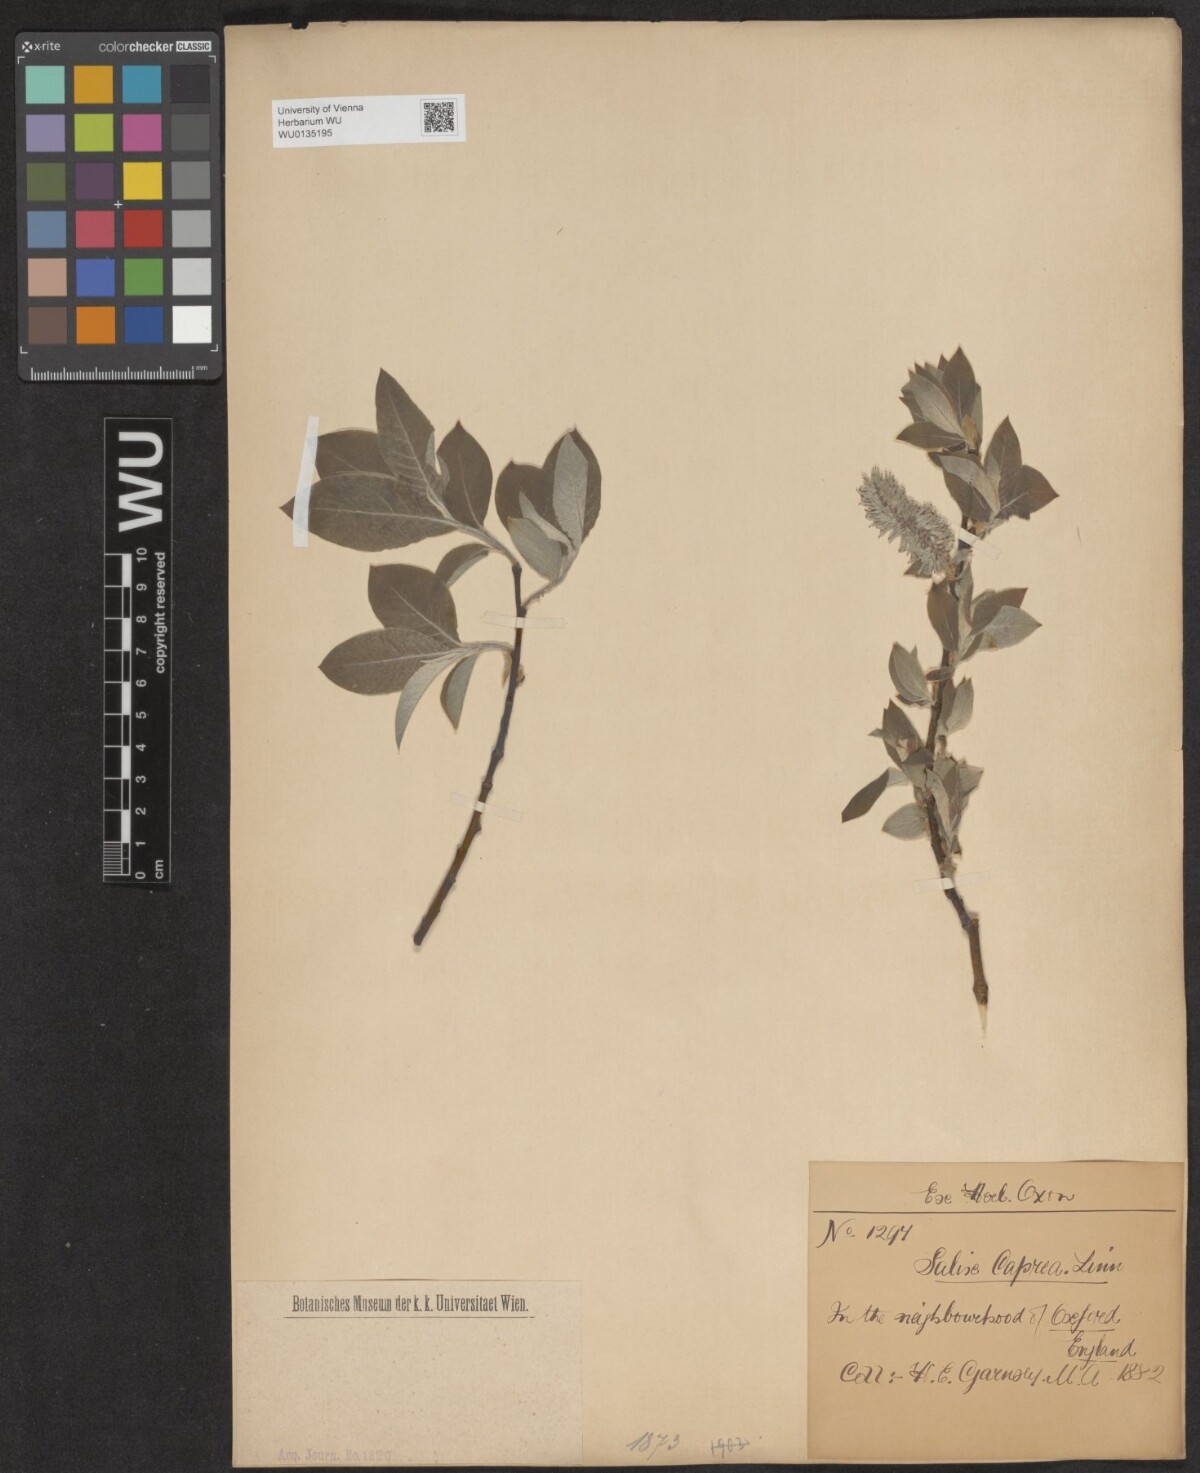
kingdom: Plantae
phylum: Tracheophyta
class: Magnoliopsida
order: Malpighiales
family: Salicaceae
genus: Salix
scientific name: Salix caprea
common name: Goat willow
